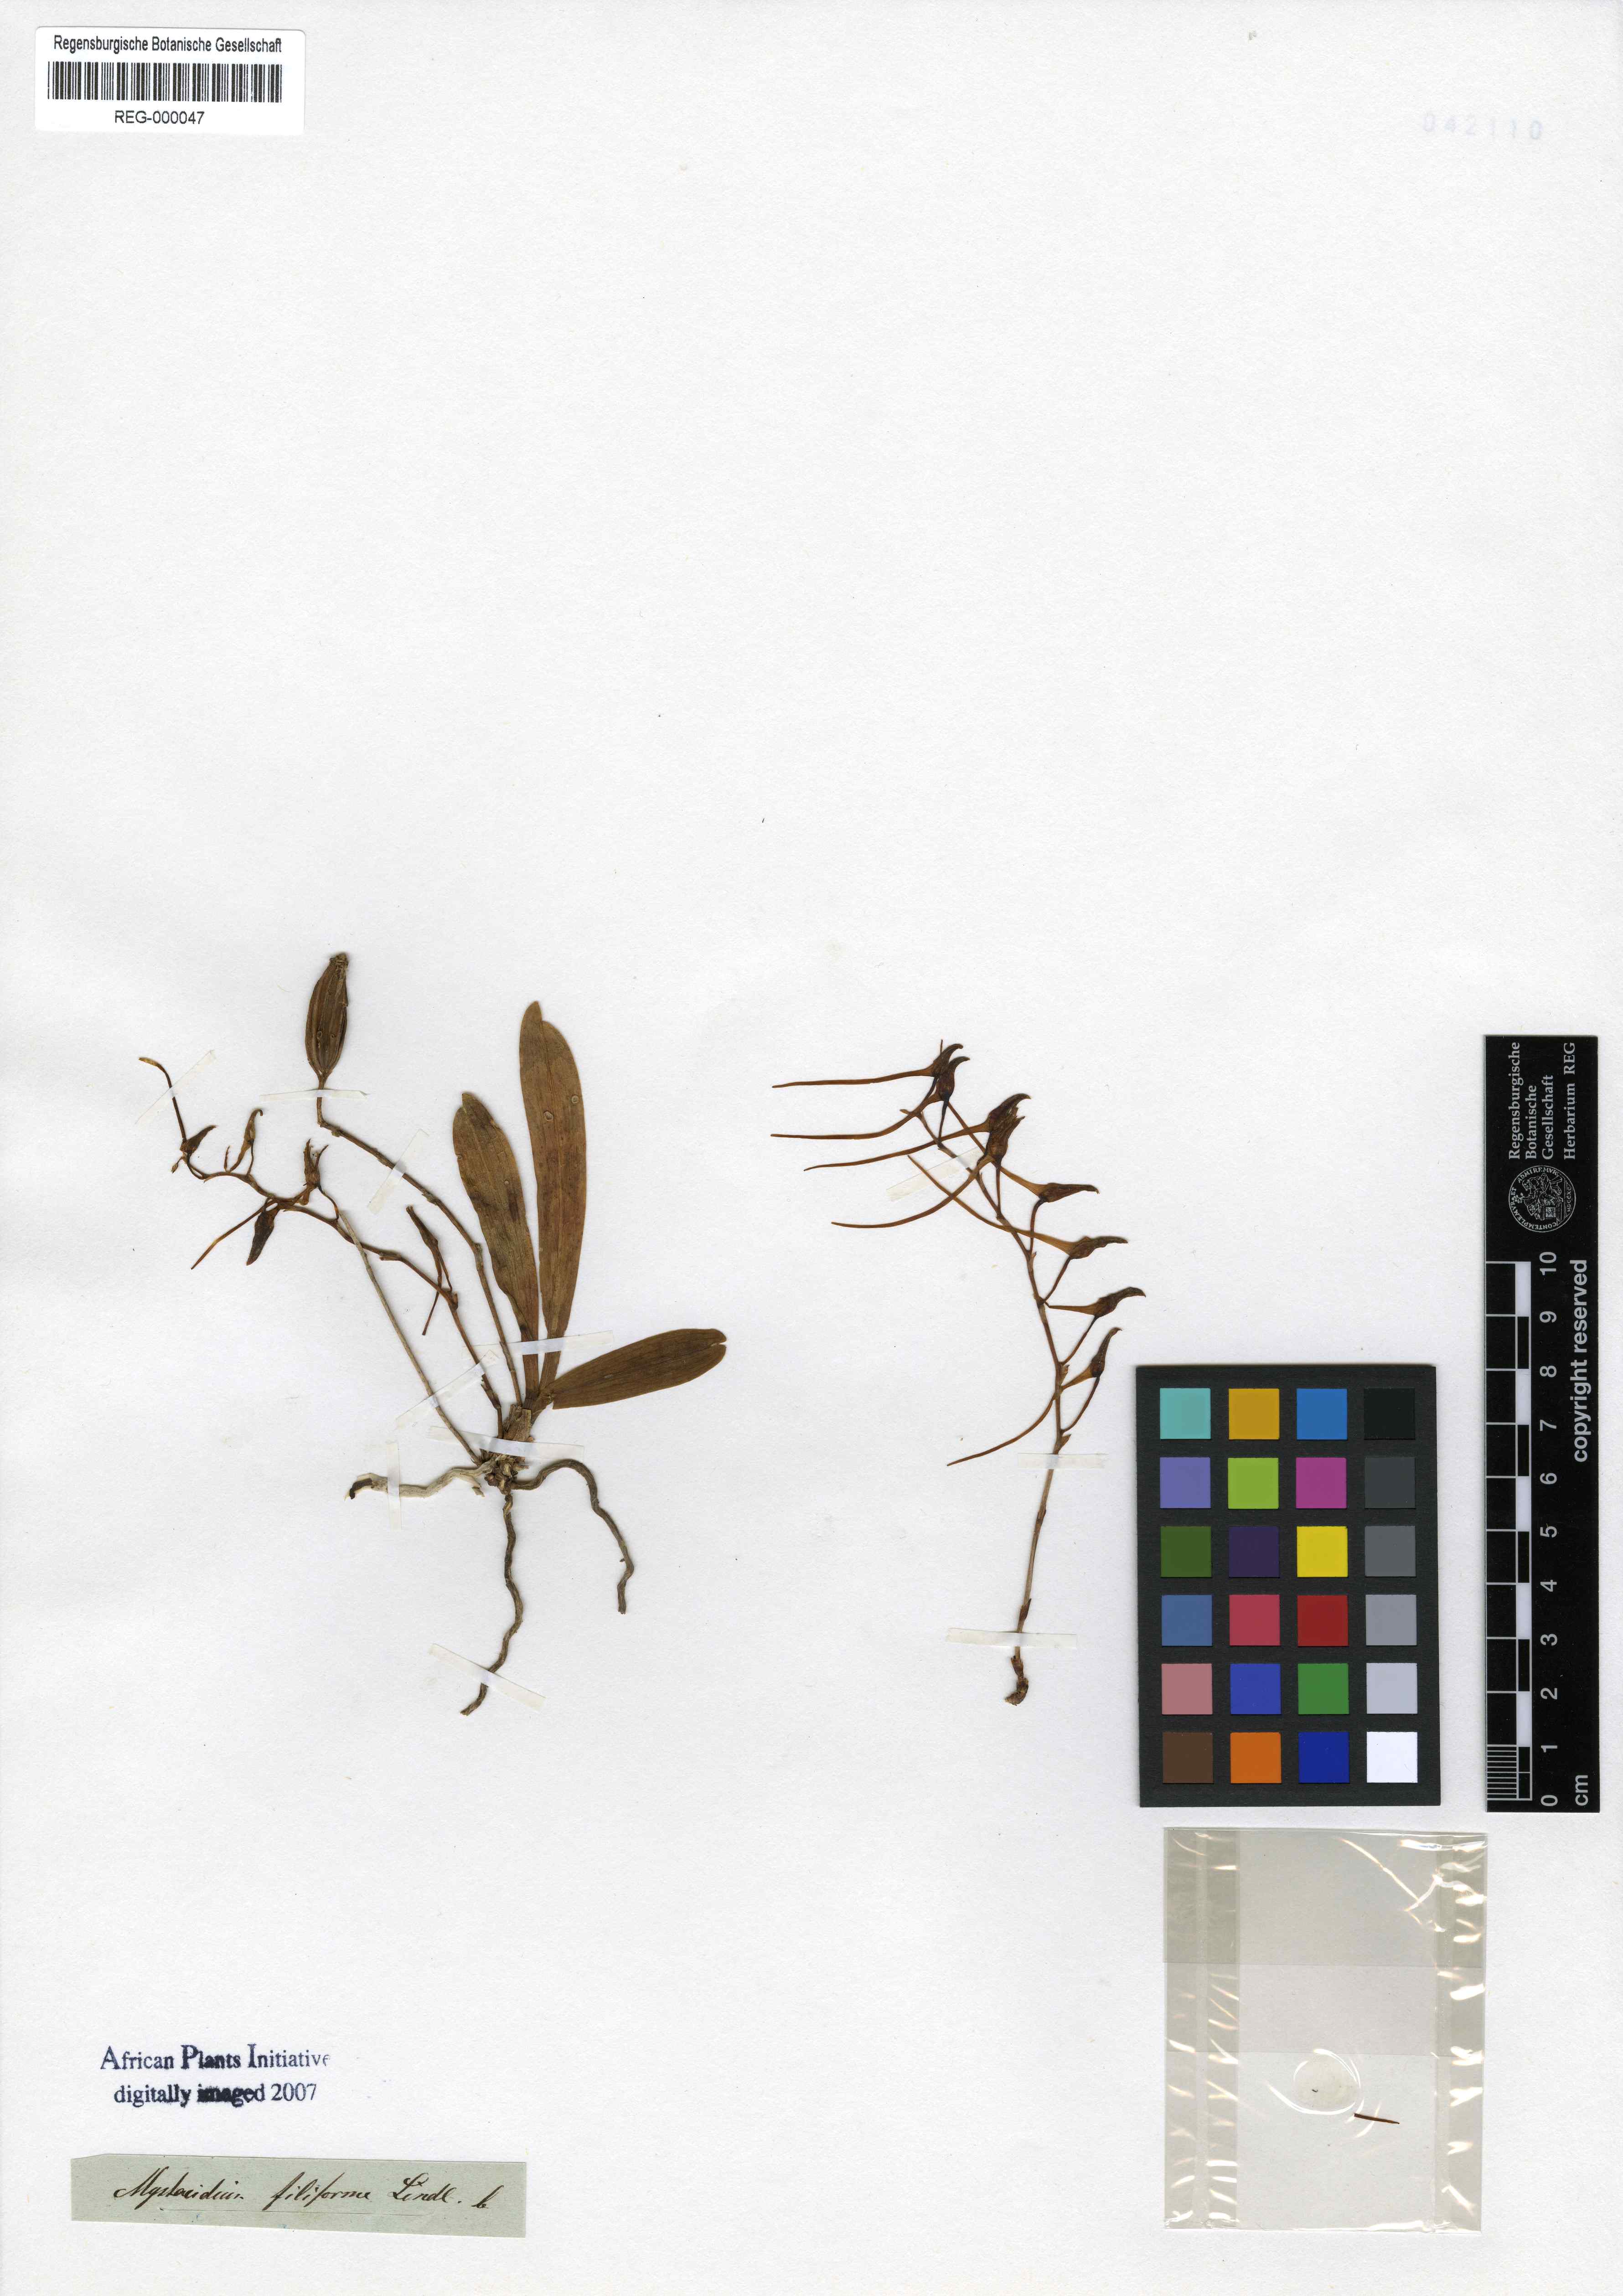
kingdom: Plantae
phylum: Tracheophyta
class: Liliopsida
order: Asparagales
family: Orchidaceae
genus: Mystacidium
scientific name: Mystacidium capense
